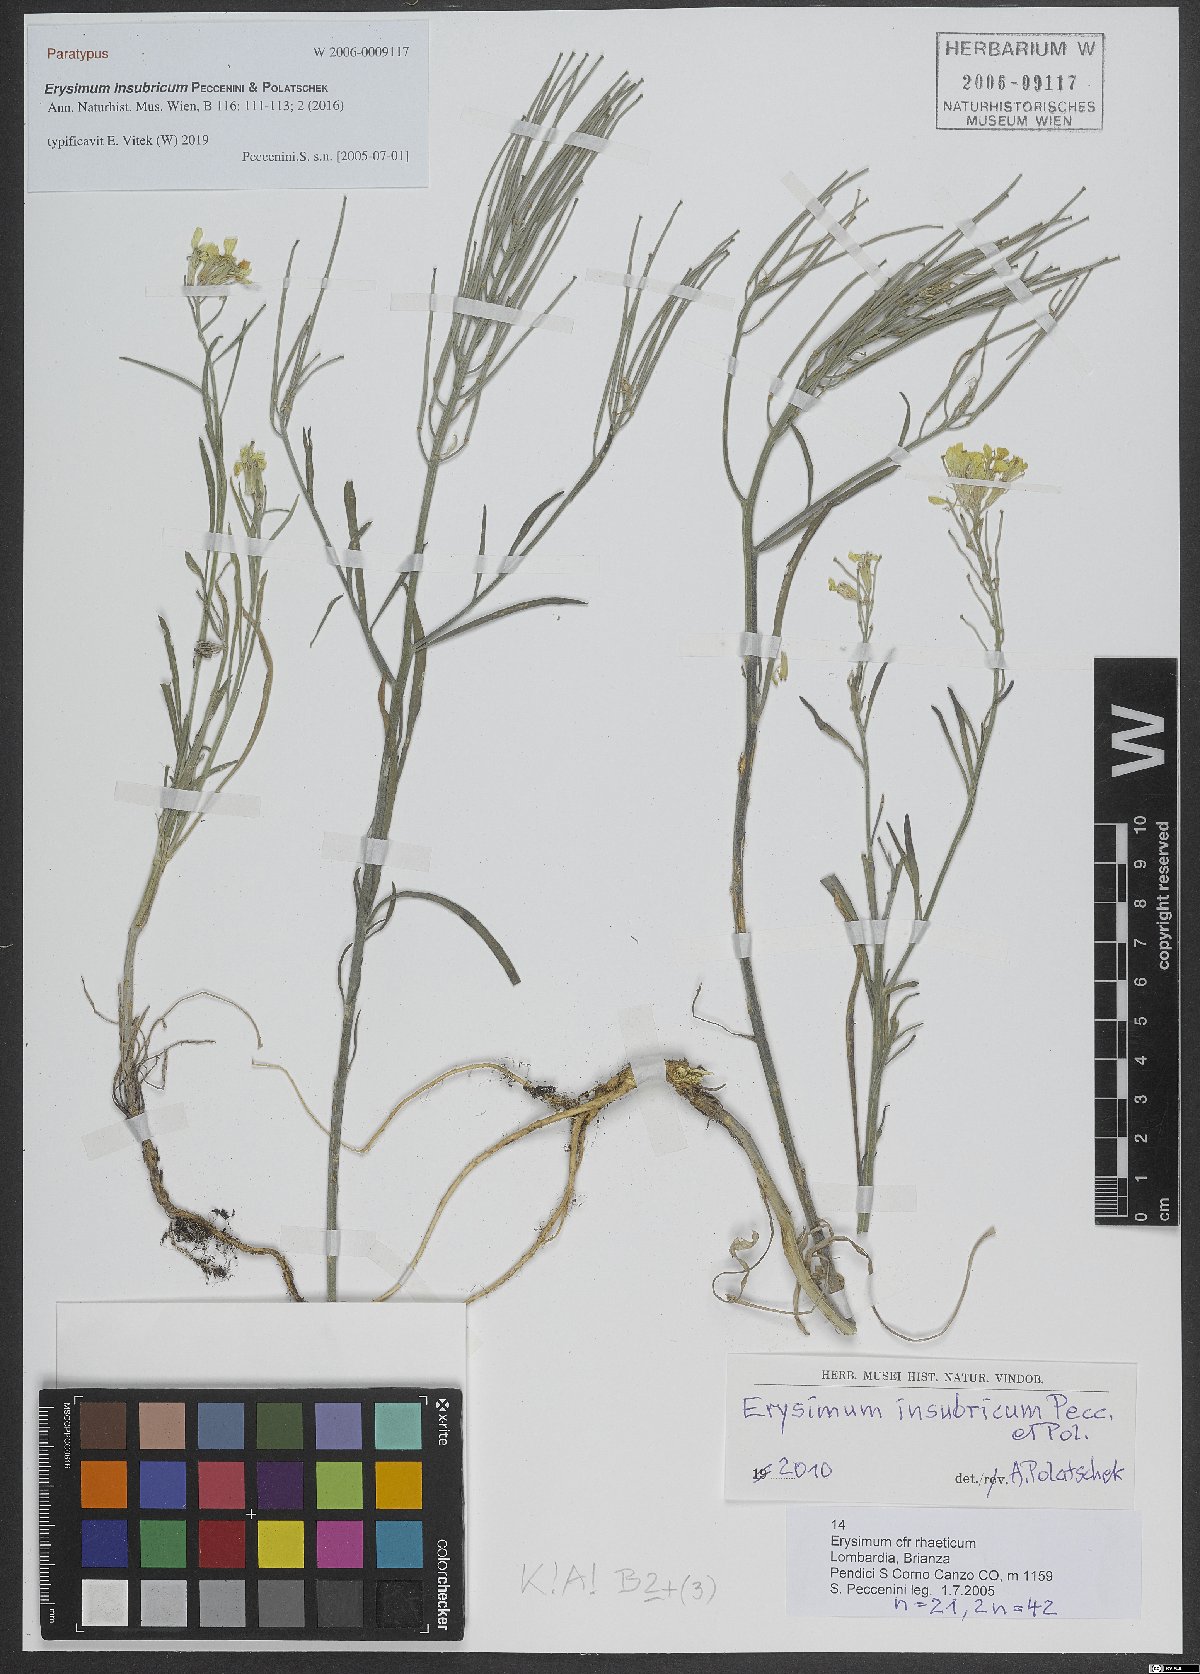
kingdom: Plantae
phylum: Tracheophyta
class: Magnoliopsida
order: Brassicales
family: Brassicaceae
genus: Erysimum
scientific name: Erysimum insubricum
